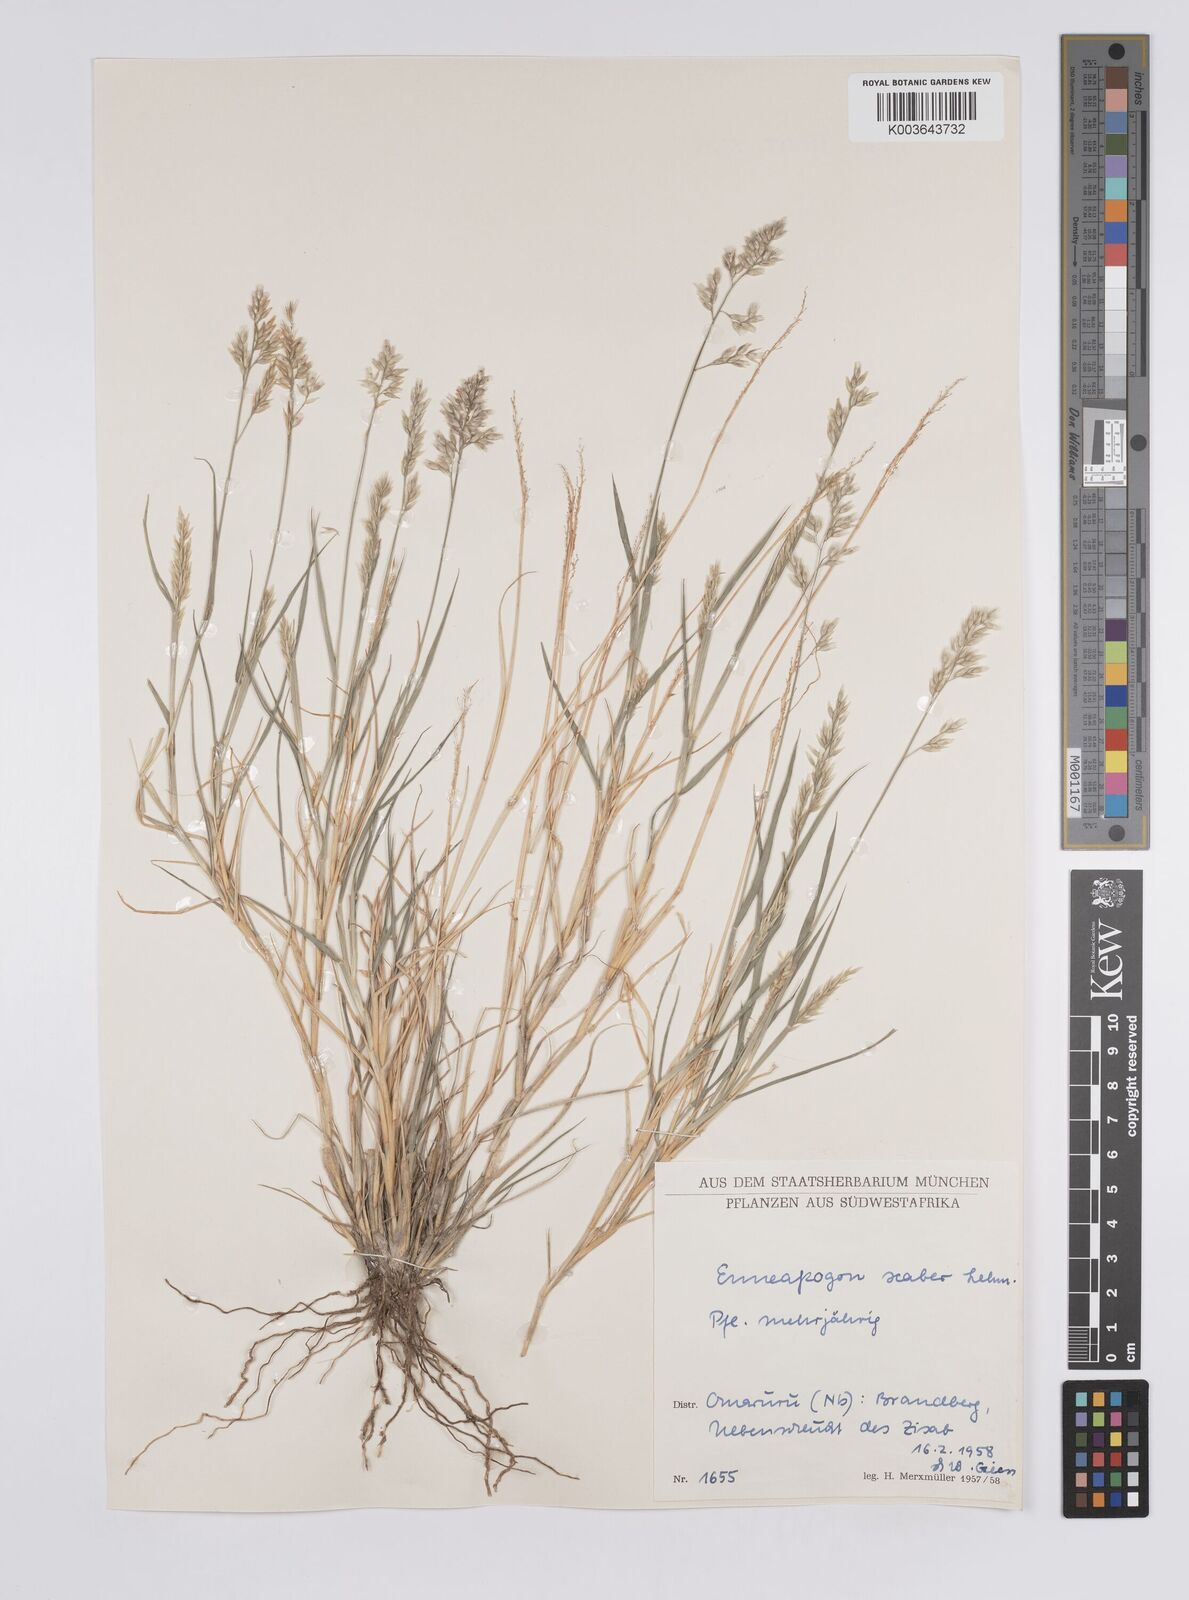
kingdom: Plantae
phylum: Tracheophyta
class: Liliopsida
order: Poales
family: Poaceae
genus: Enneapogon
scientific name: Enneapogon scaber
